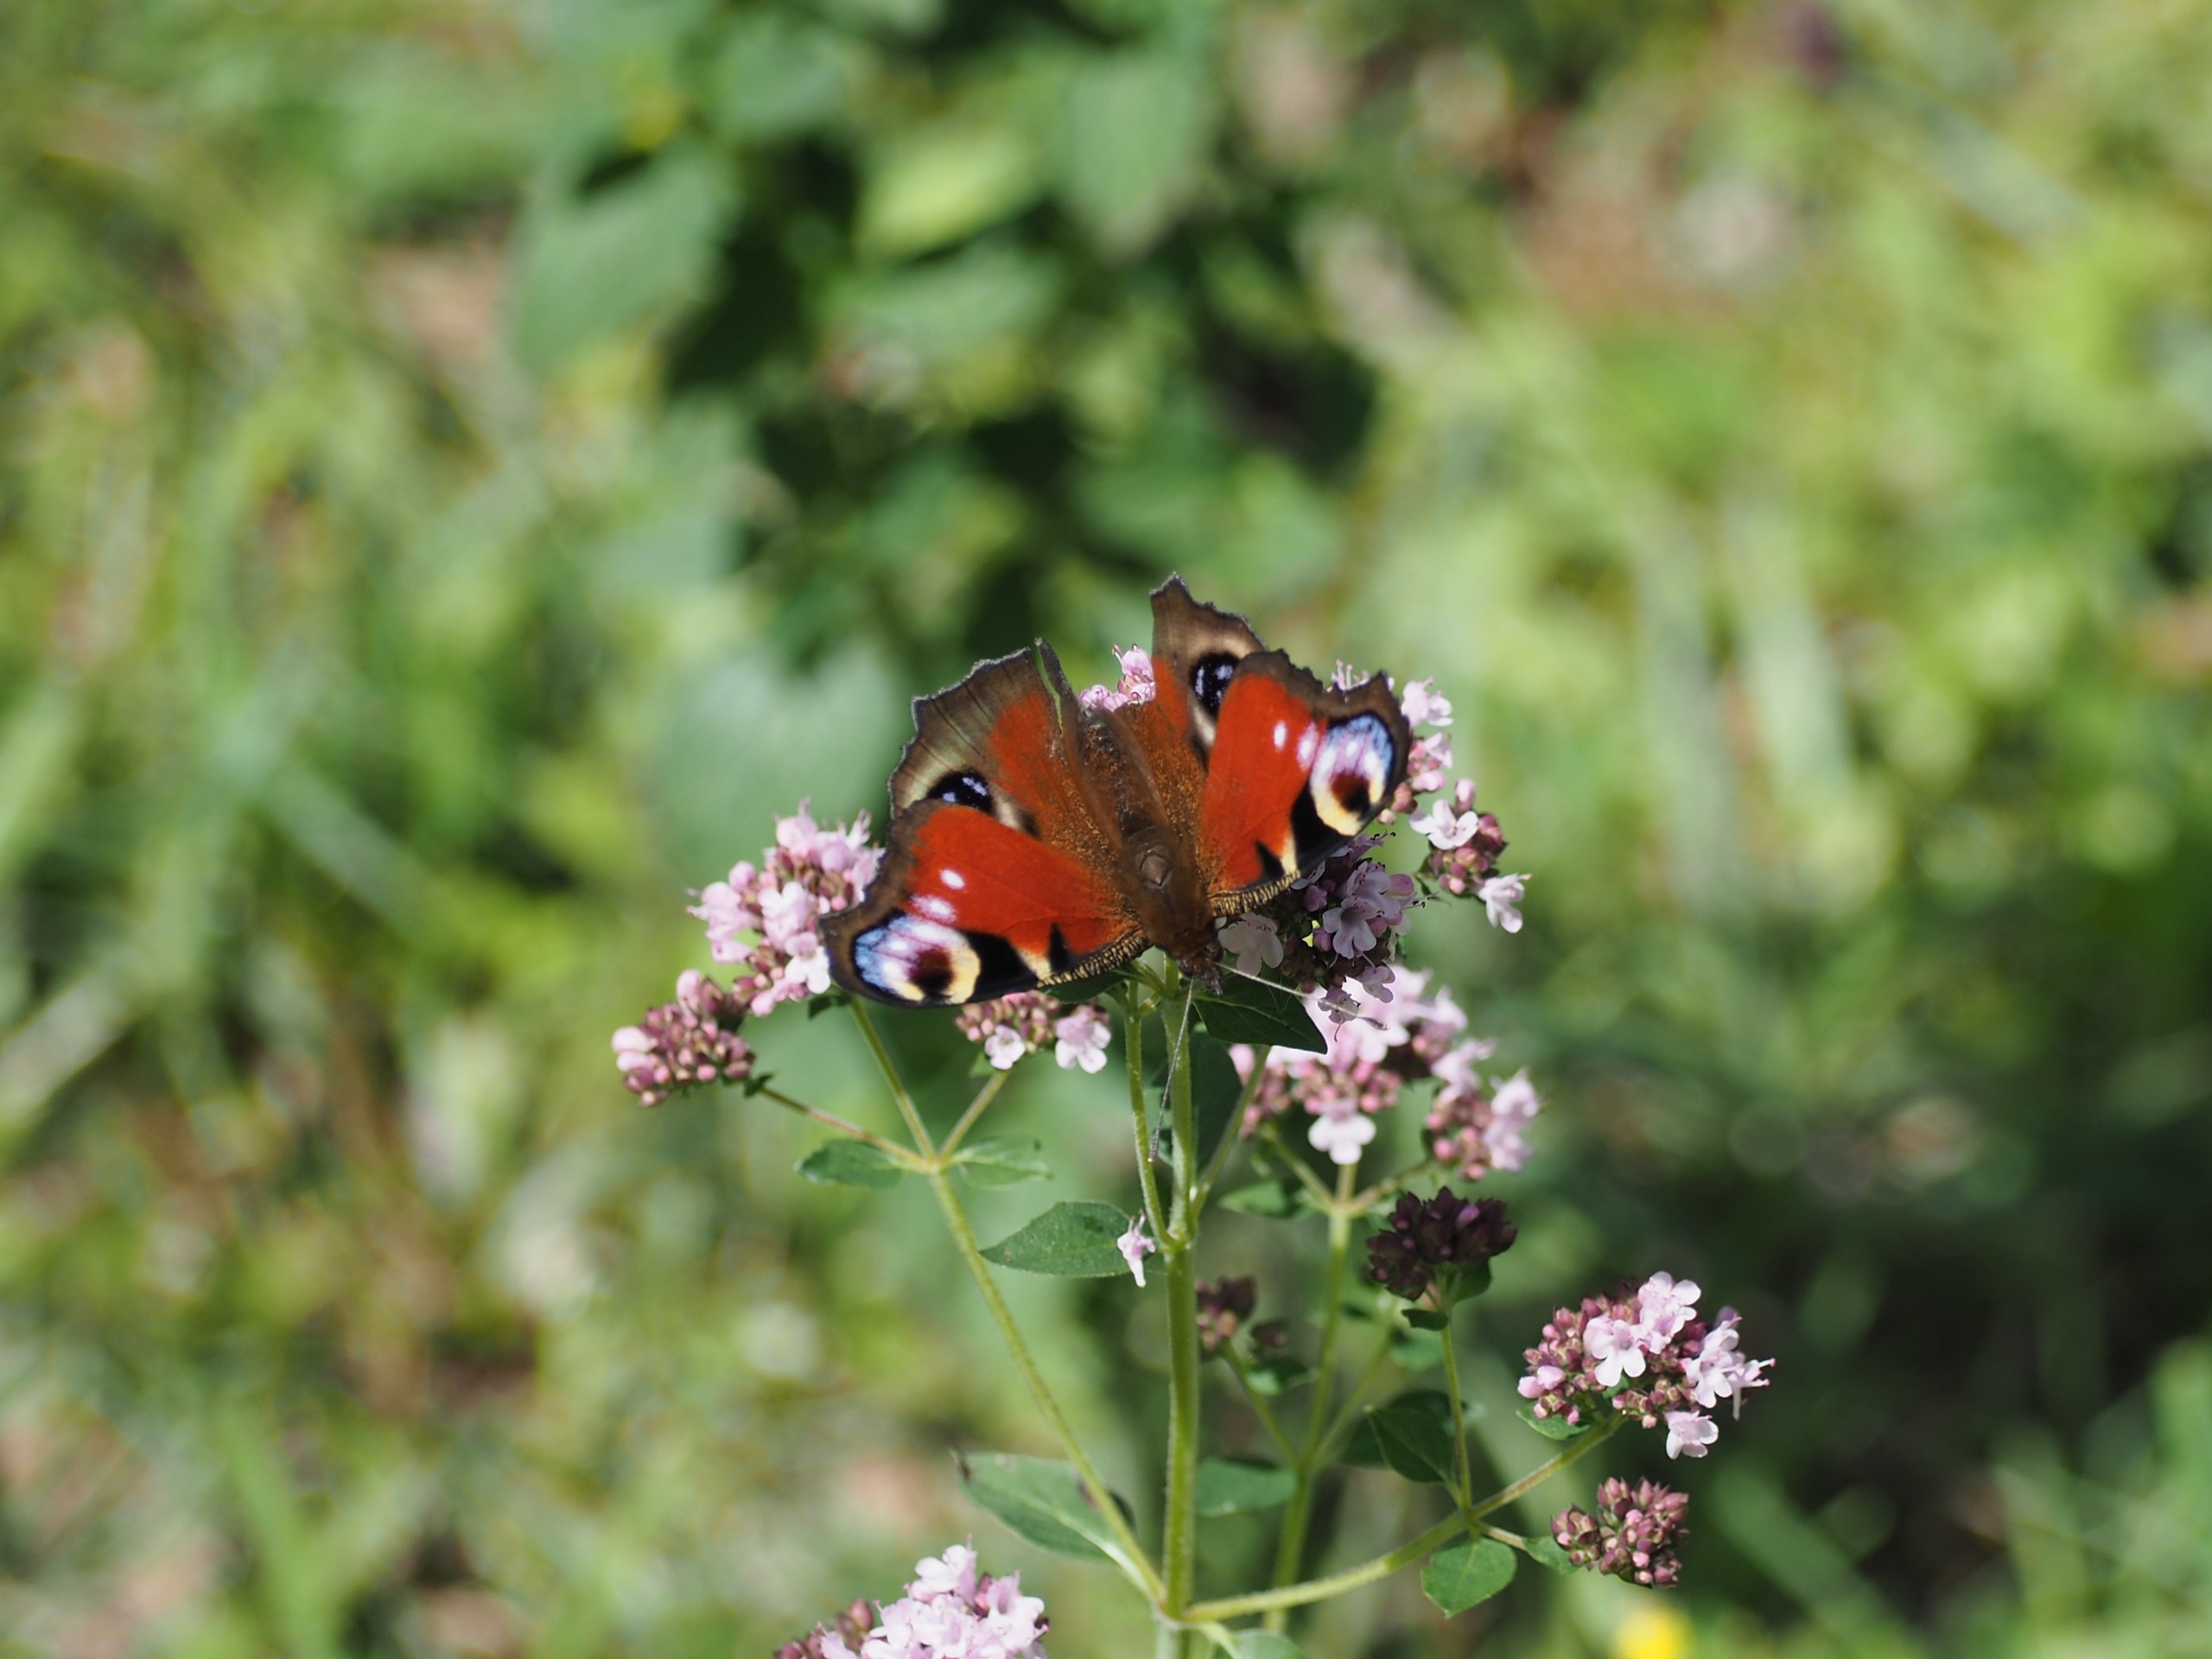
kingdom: Animalia
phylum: Arthropoda
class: Insecta
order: Lepidoptera
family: Nymphalidae
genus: Aglais
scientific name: Aglais io
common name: Dagpåfugleøje
